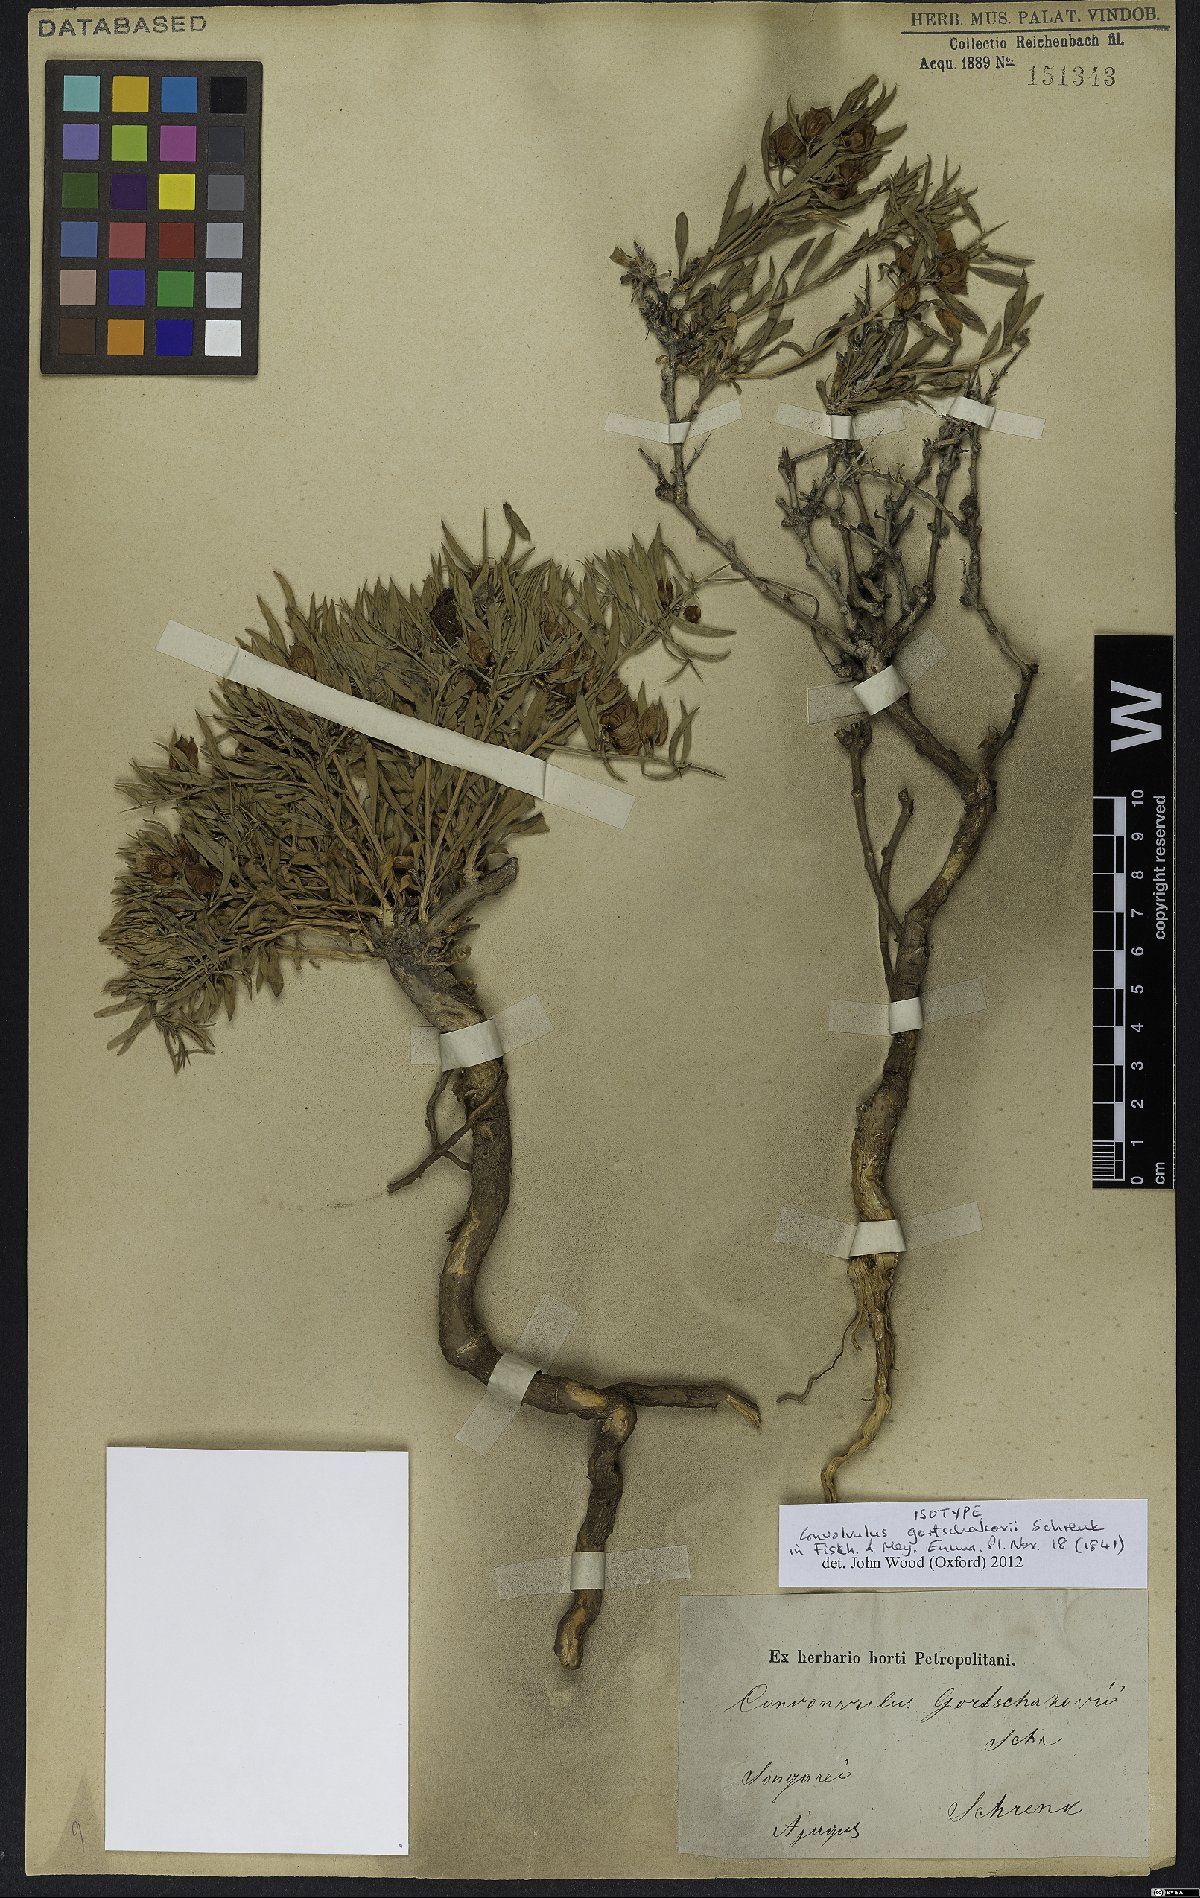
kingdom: Plantae
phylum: Tracheophyta
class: Magnoliopsida
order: Solanales
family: Convolvulaceae
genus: Convolvulus
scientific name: Convolvulus gortschakovii
